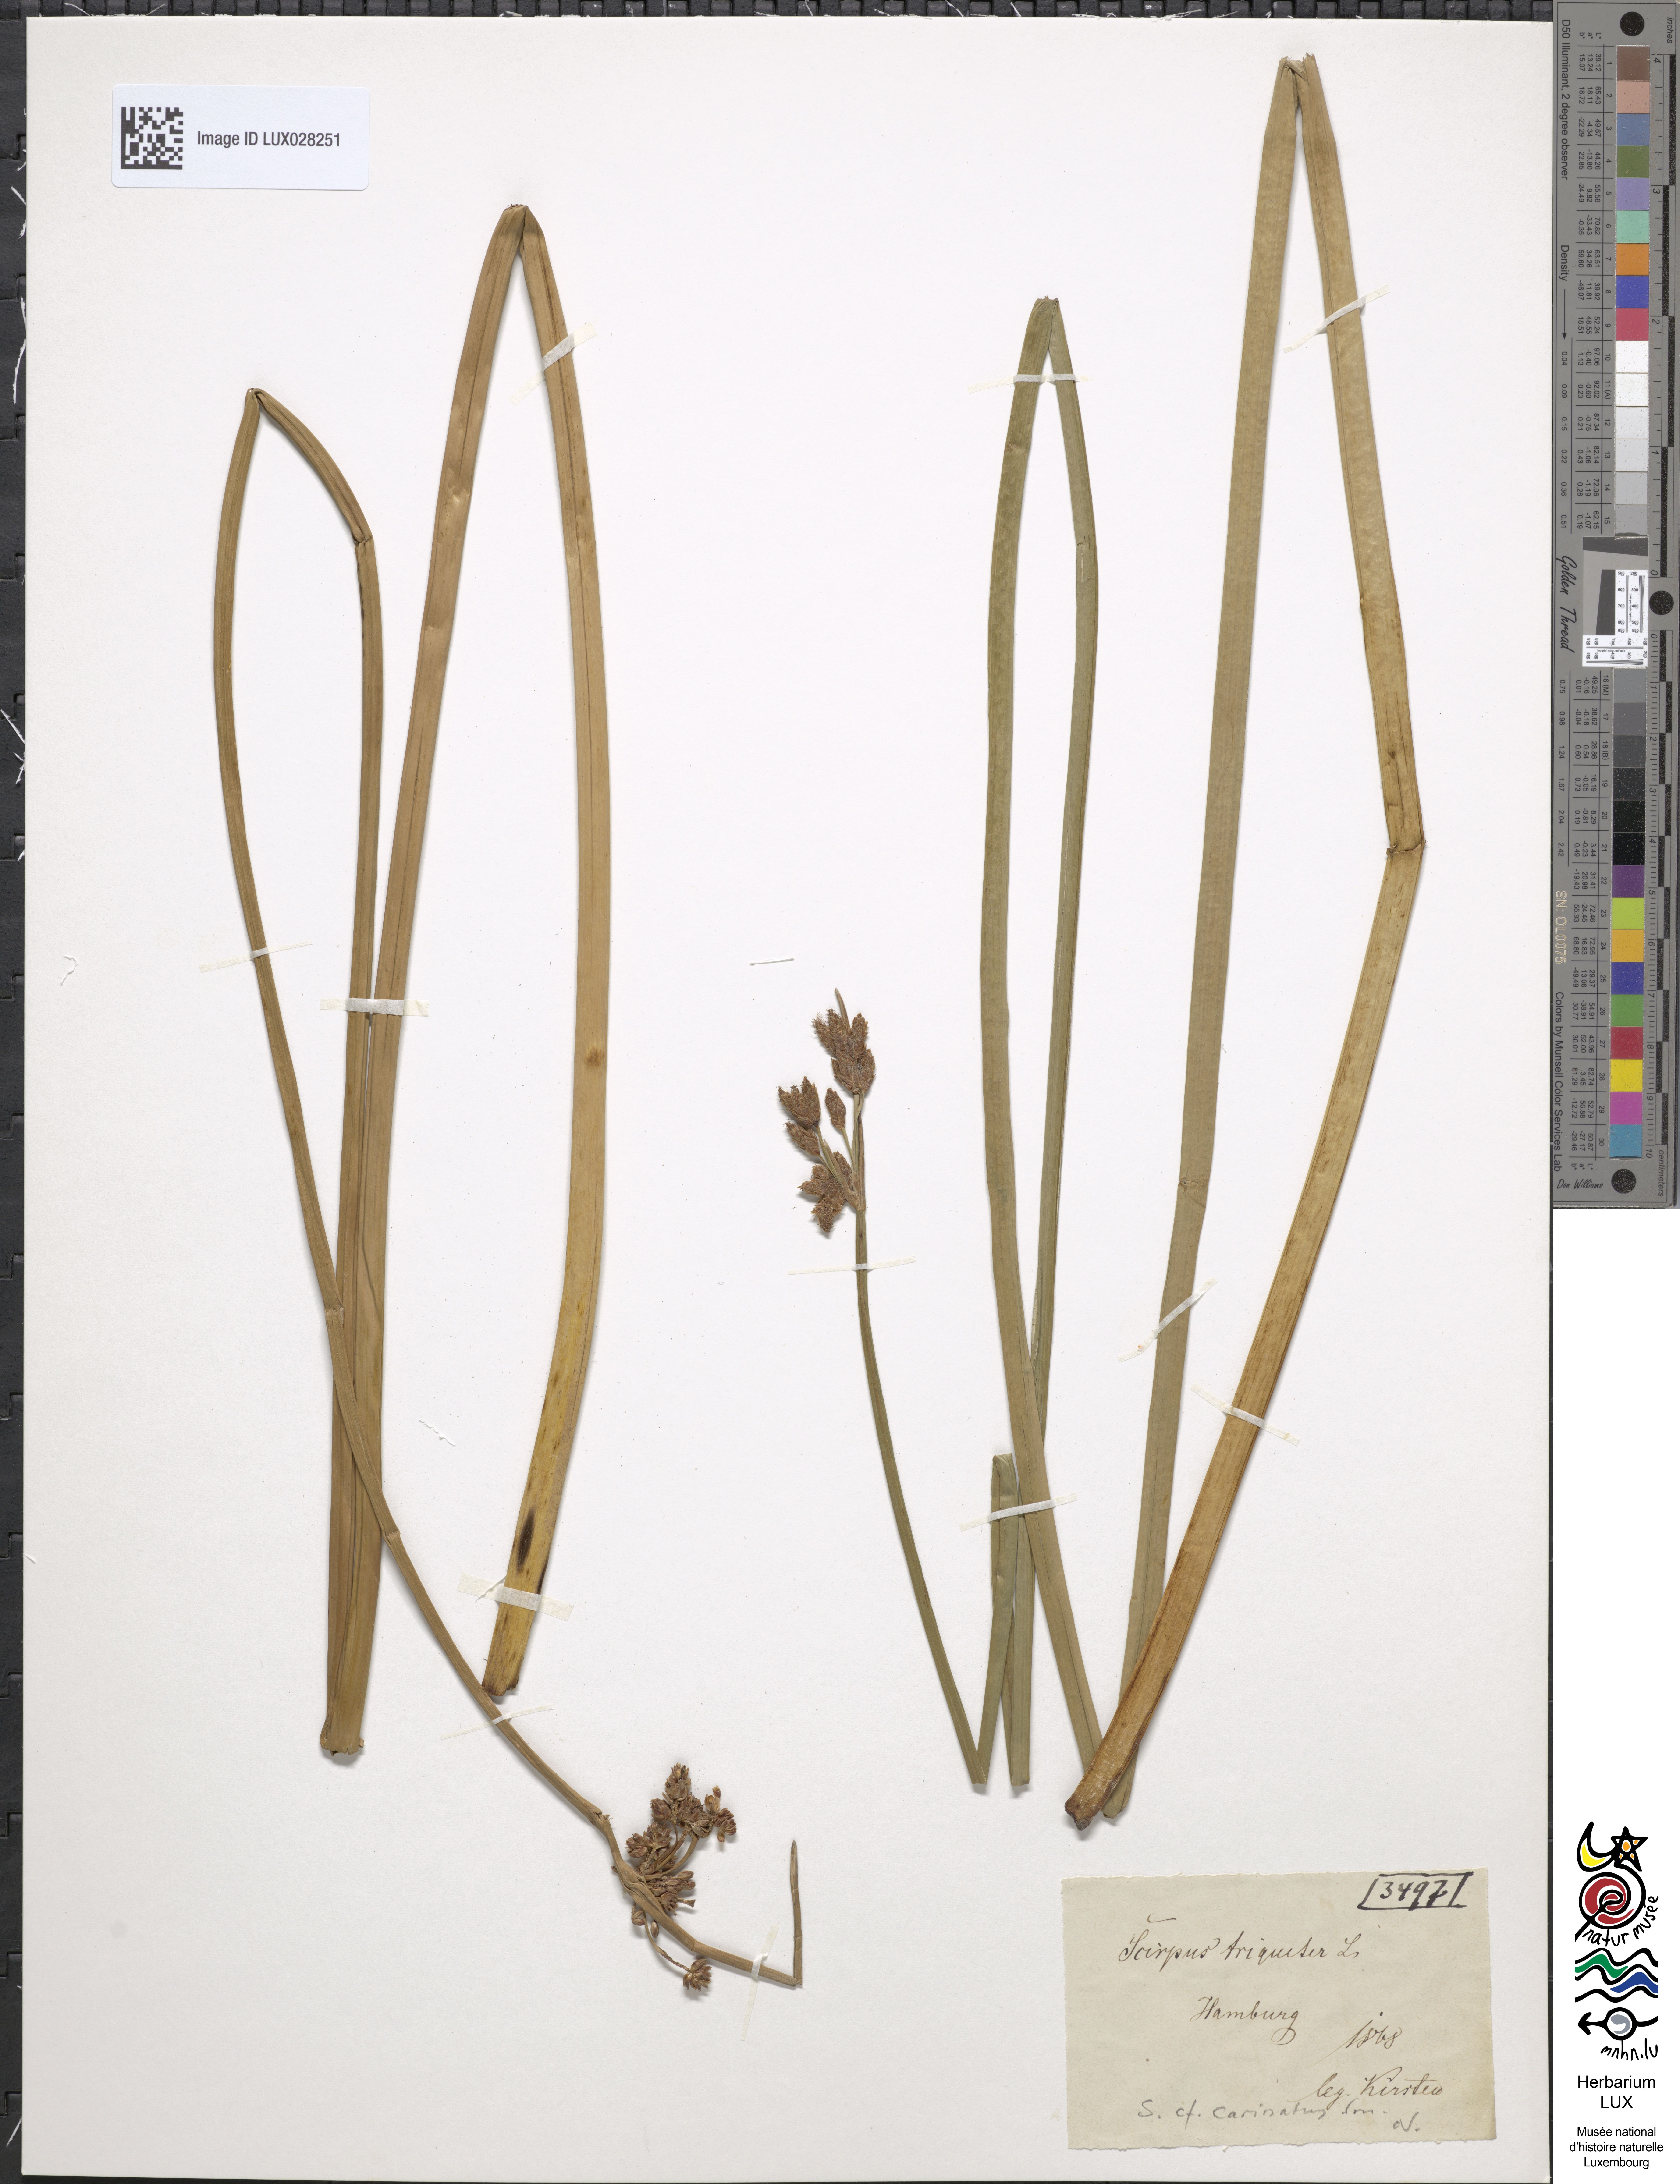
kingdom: Plantae
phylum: Tracheophyta
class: Liliopsida
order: Poales
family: Cyperaceae
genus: Schoenoplectus
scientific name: Schoenoplectus triqueter
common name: Triangular club-rush
